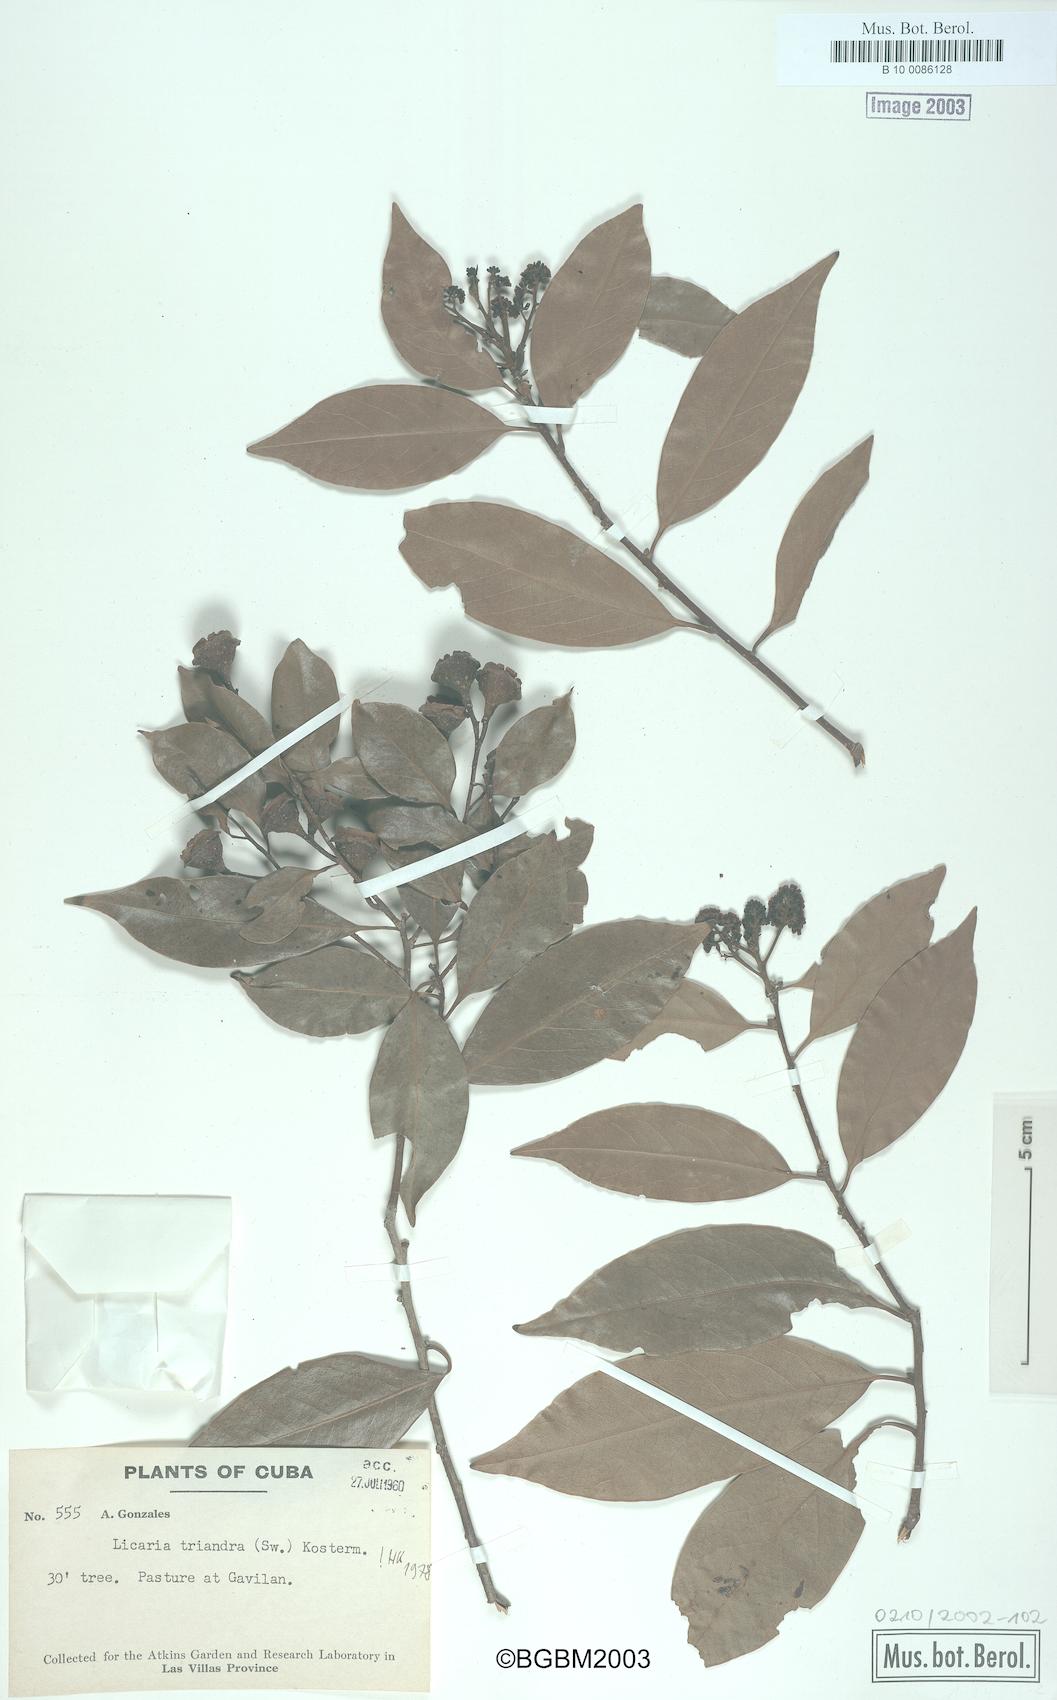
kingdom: Plantae
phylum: Tracheophyta
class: Magnoliopsida
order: Laurales
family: Lauraceae
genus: Licaria
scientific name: Licaria triandra
